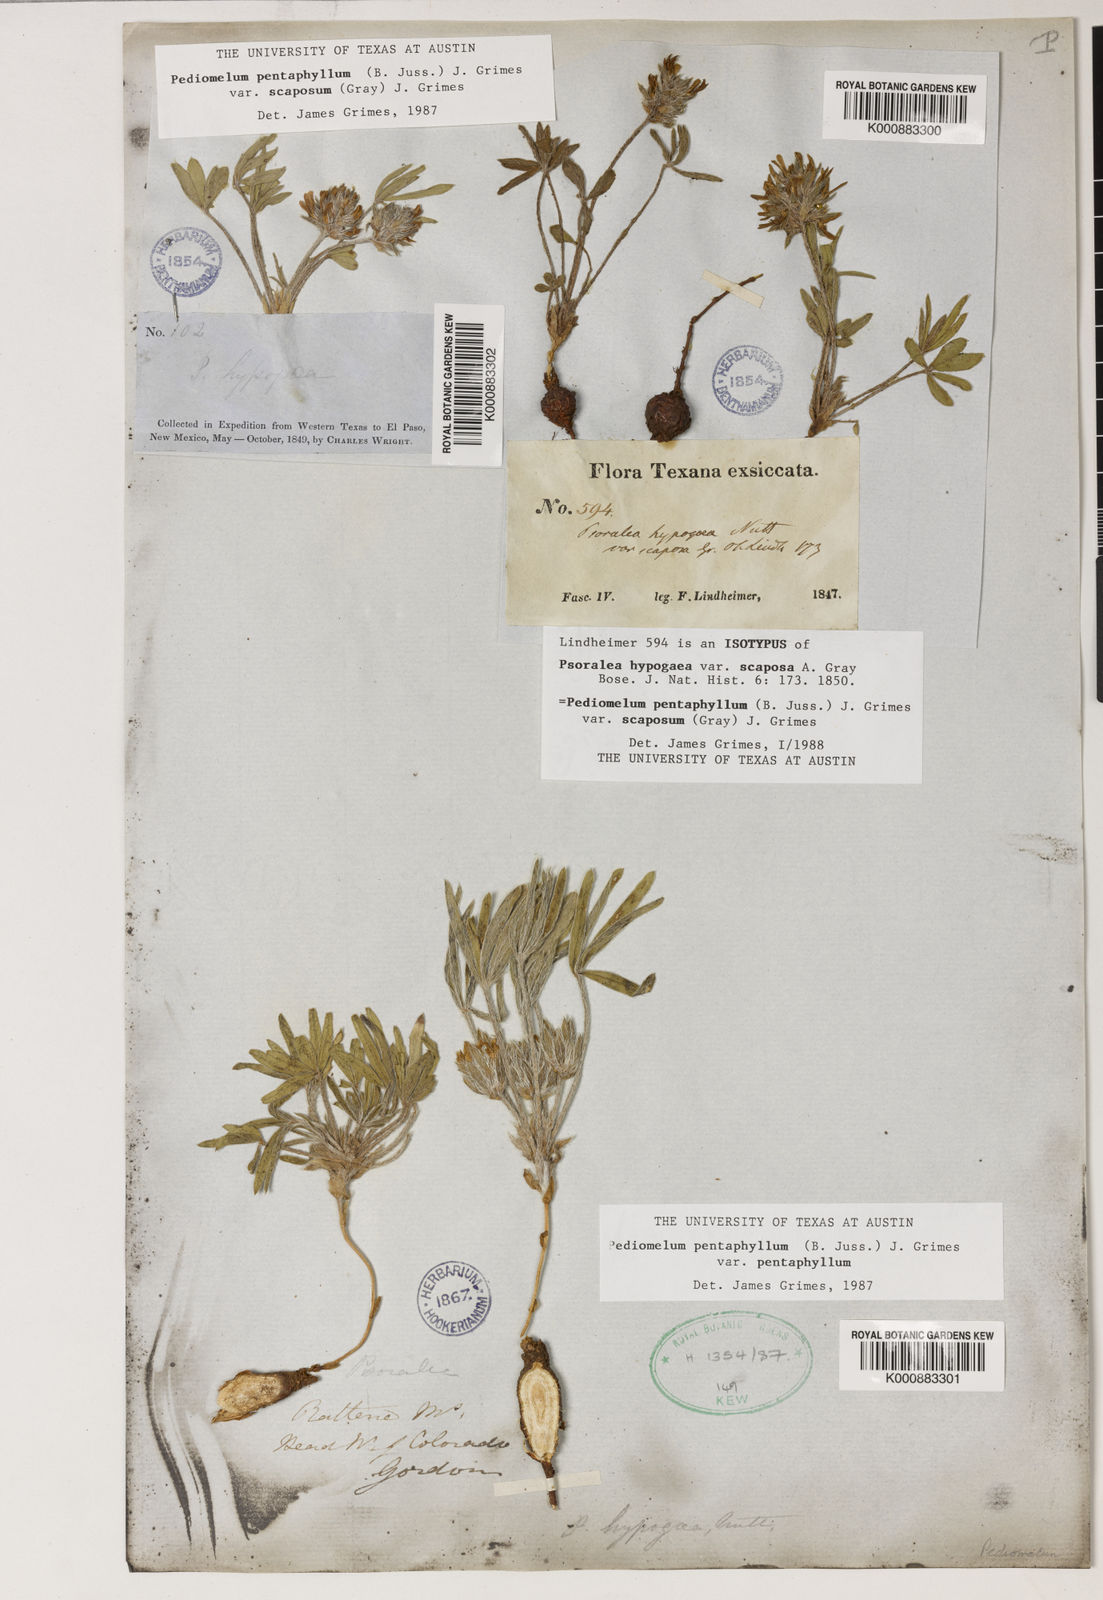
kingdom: Plantae
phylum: Tracheophyta
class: Magnoliopsida
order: Fabales
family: Fabaceae
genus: Pediomelum
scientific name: Pediomelum hypogaeum
